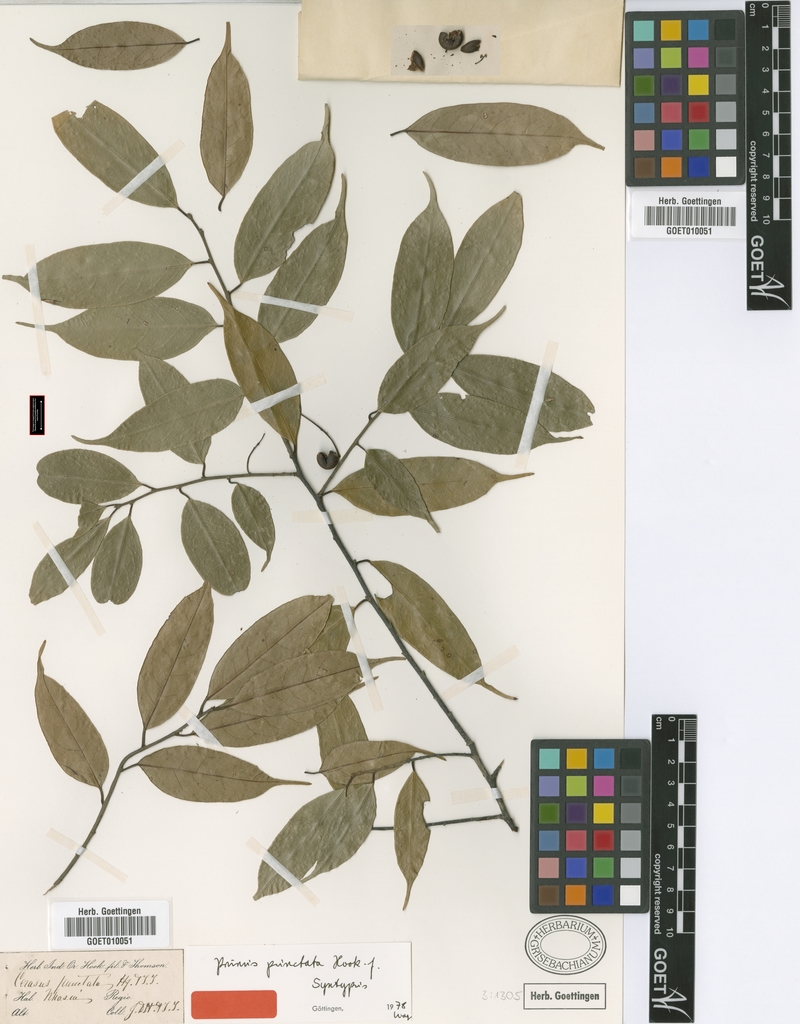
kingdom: Plantae
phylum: Tracheophyta
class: Magnoliopsida
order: Rosales
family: Rosaceae
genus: Prunus
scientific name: Prunus phaeosticta
